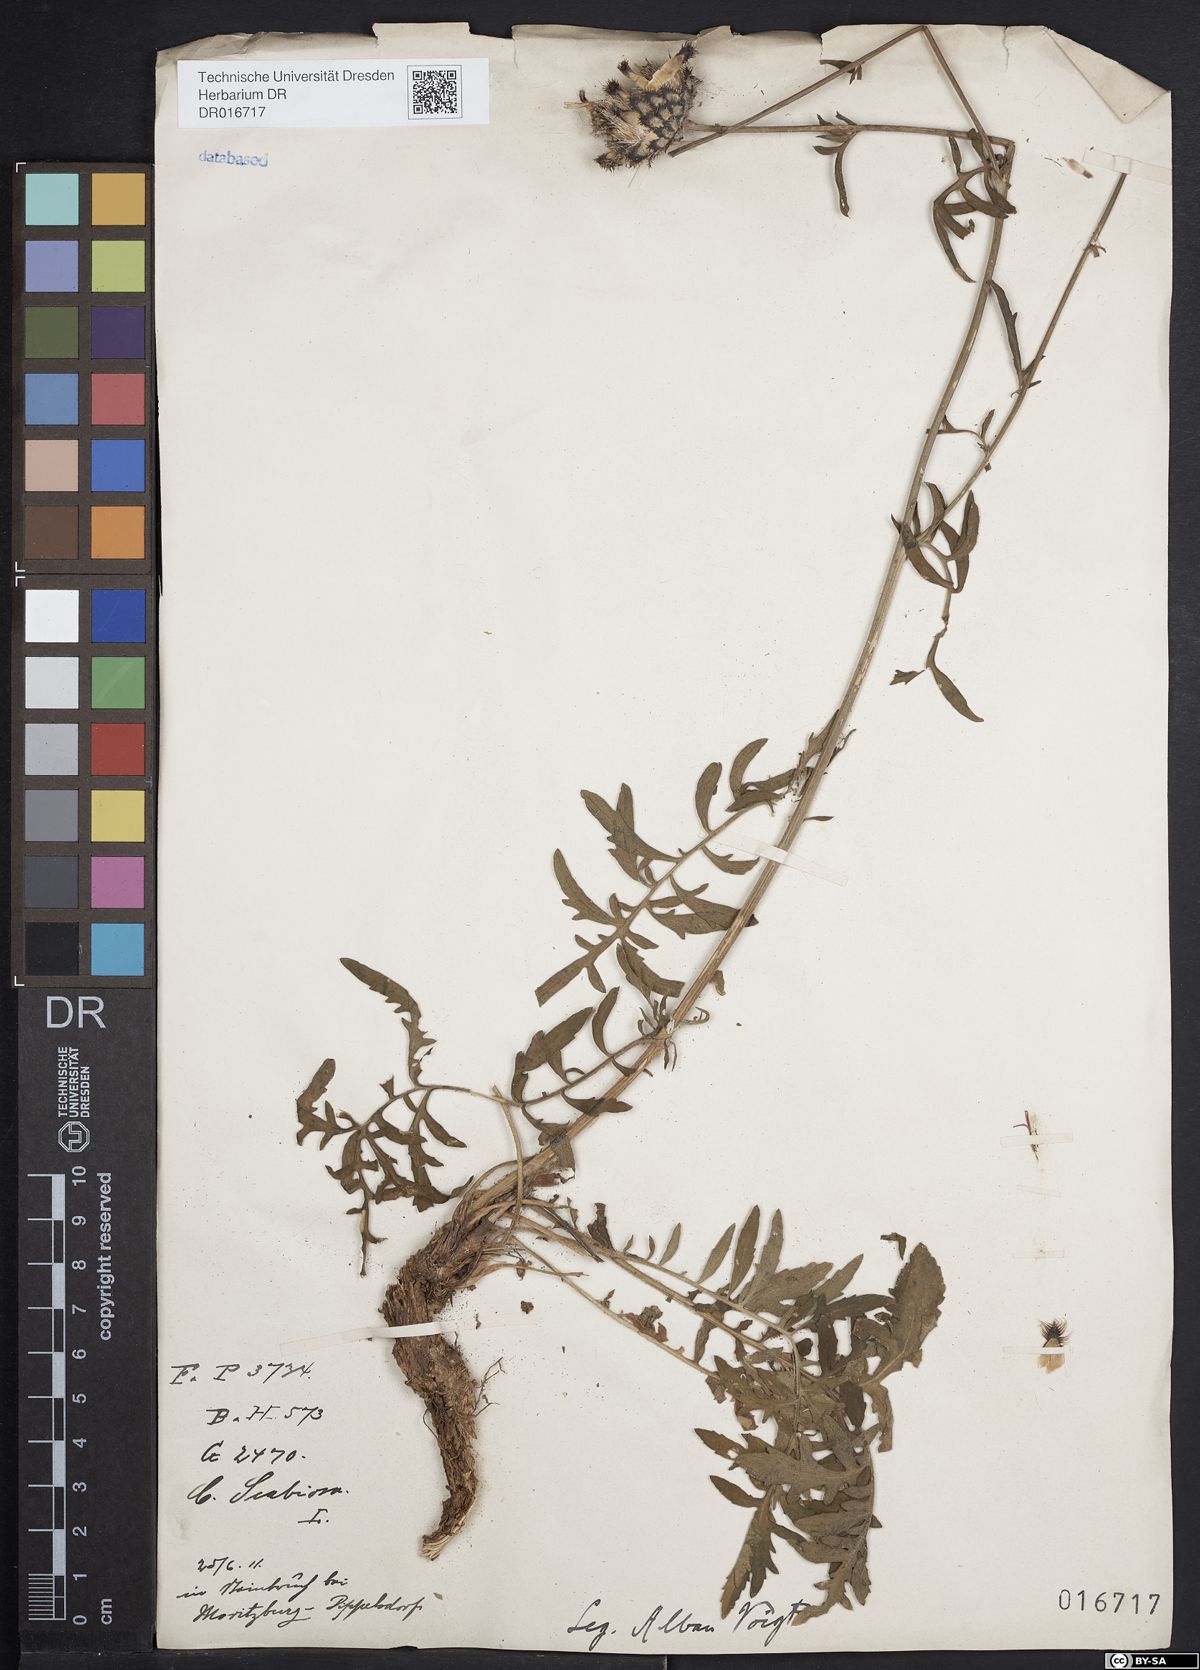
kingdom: Plantae
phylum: Tracheophyta
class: Magnoliopsida
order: Asterales
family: Asteraceae
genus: Centaurea
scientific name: Centaurea scabiosa
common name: Greater knapweed
